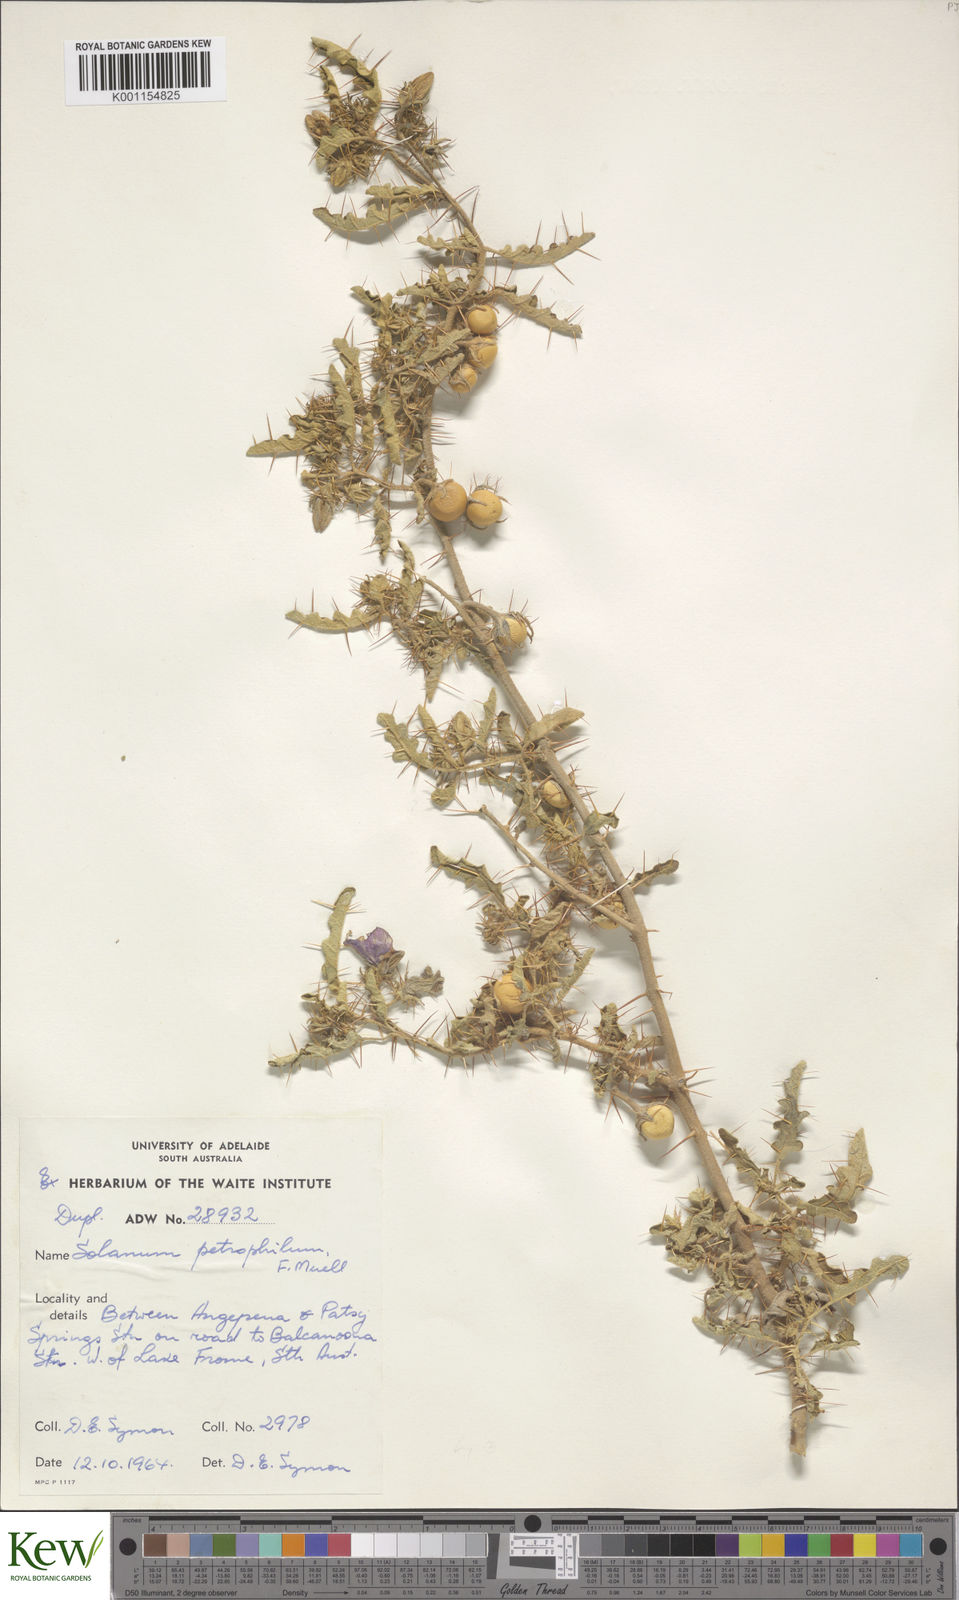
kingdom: Plantae
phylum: Tracheophyta
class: Magnoliopsida
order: Solanales
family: Solanaceae
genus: Solanum
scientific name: Solanum petrophilum
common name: Rock nightshade
